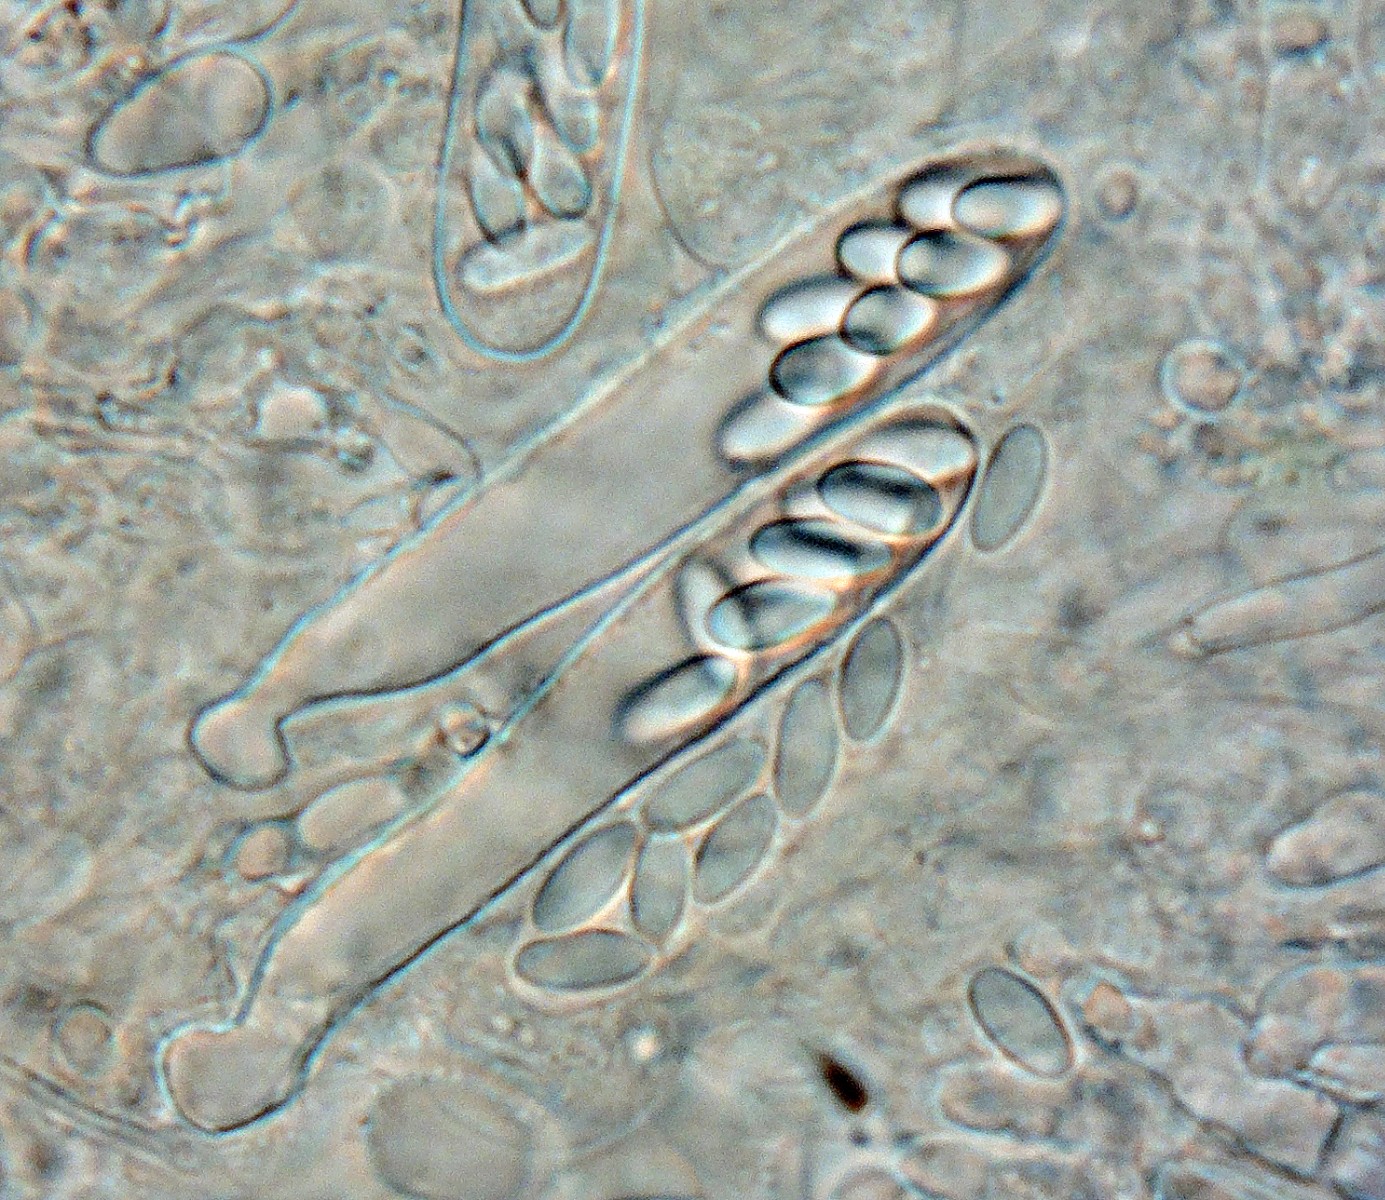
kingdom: Fungi
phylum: Ascomycota
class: Leotiomycetes
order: Helotiales
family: Hyaloscyphaceae
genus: Unguiculella
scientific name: Unguiculella tityri
